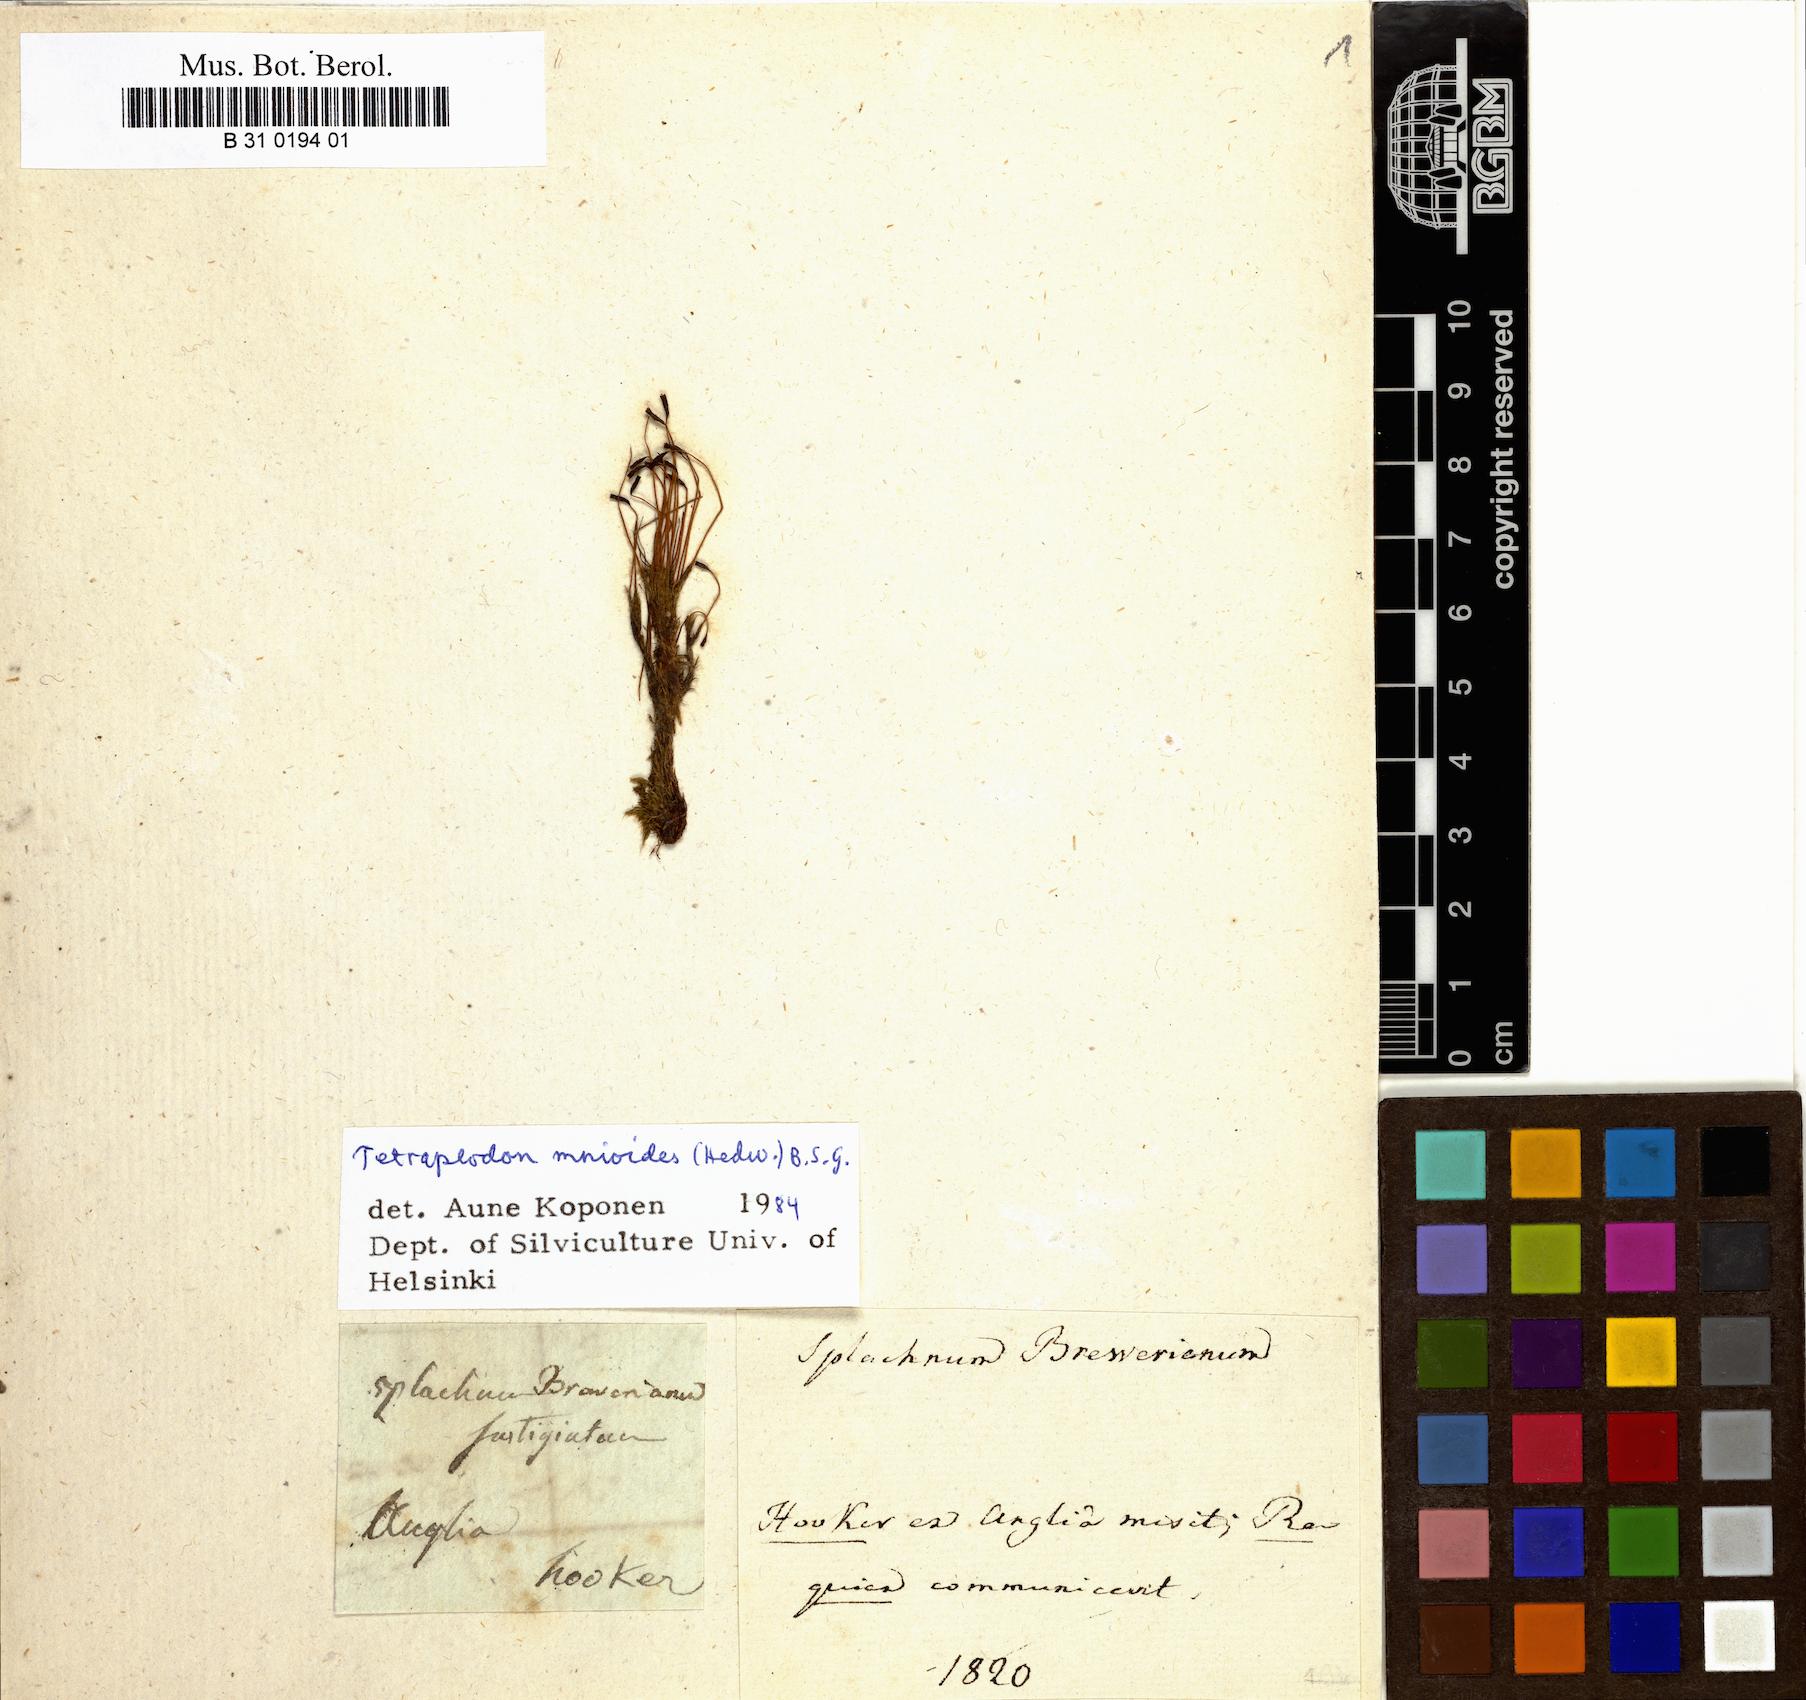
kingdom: Plantae
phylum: Bryophyta
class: Bryopsida
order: Splachnales
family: Splachnaceae
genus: Tetraplodon
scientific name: Tetraplodon mnioides
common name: Entire-leaved nitrogen moss
